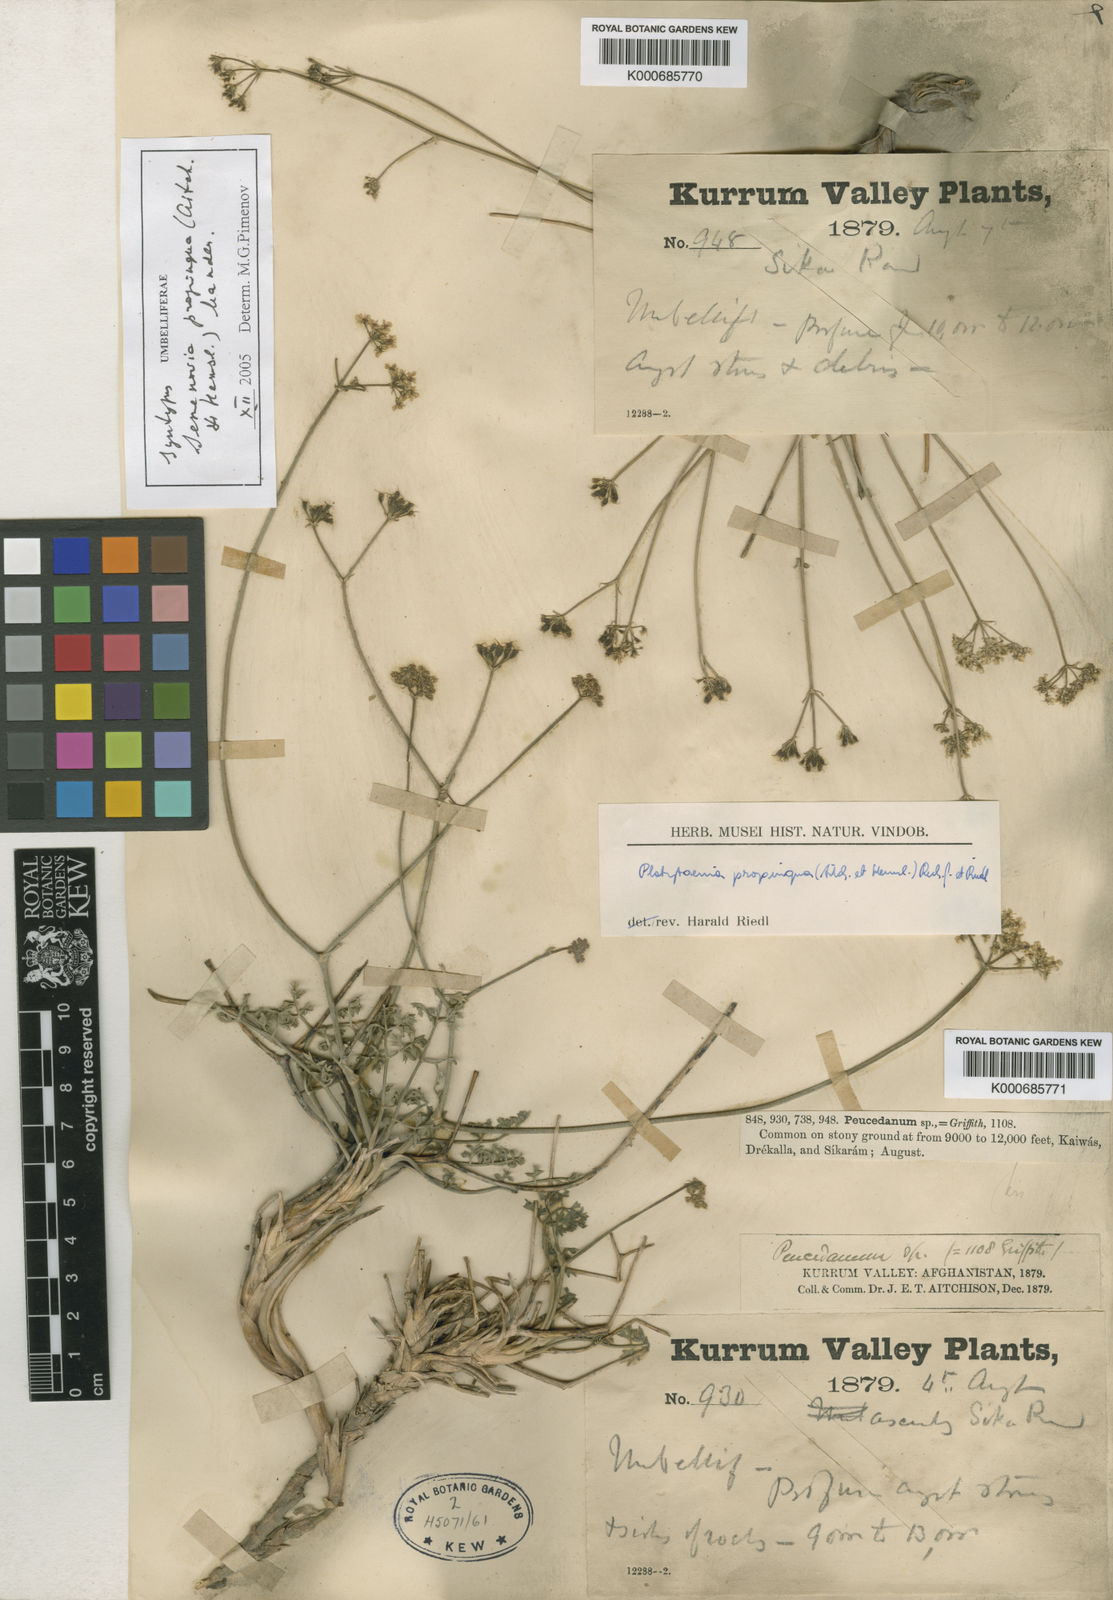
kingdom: Plantae
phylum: Tracheophyta
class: Magnoliopsida
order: Apiales
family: Apiaceae
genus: Semenovia
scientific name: Semenovia propinqua
